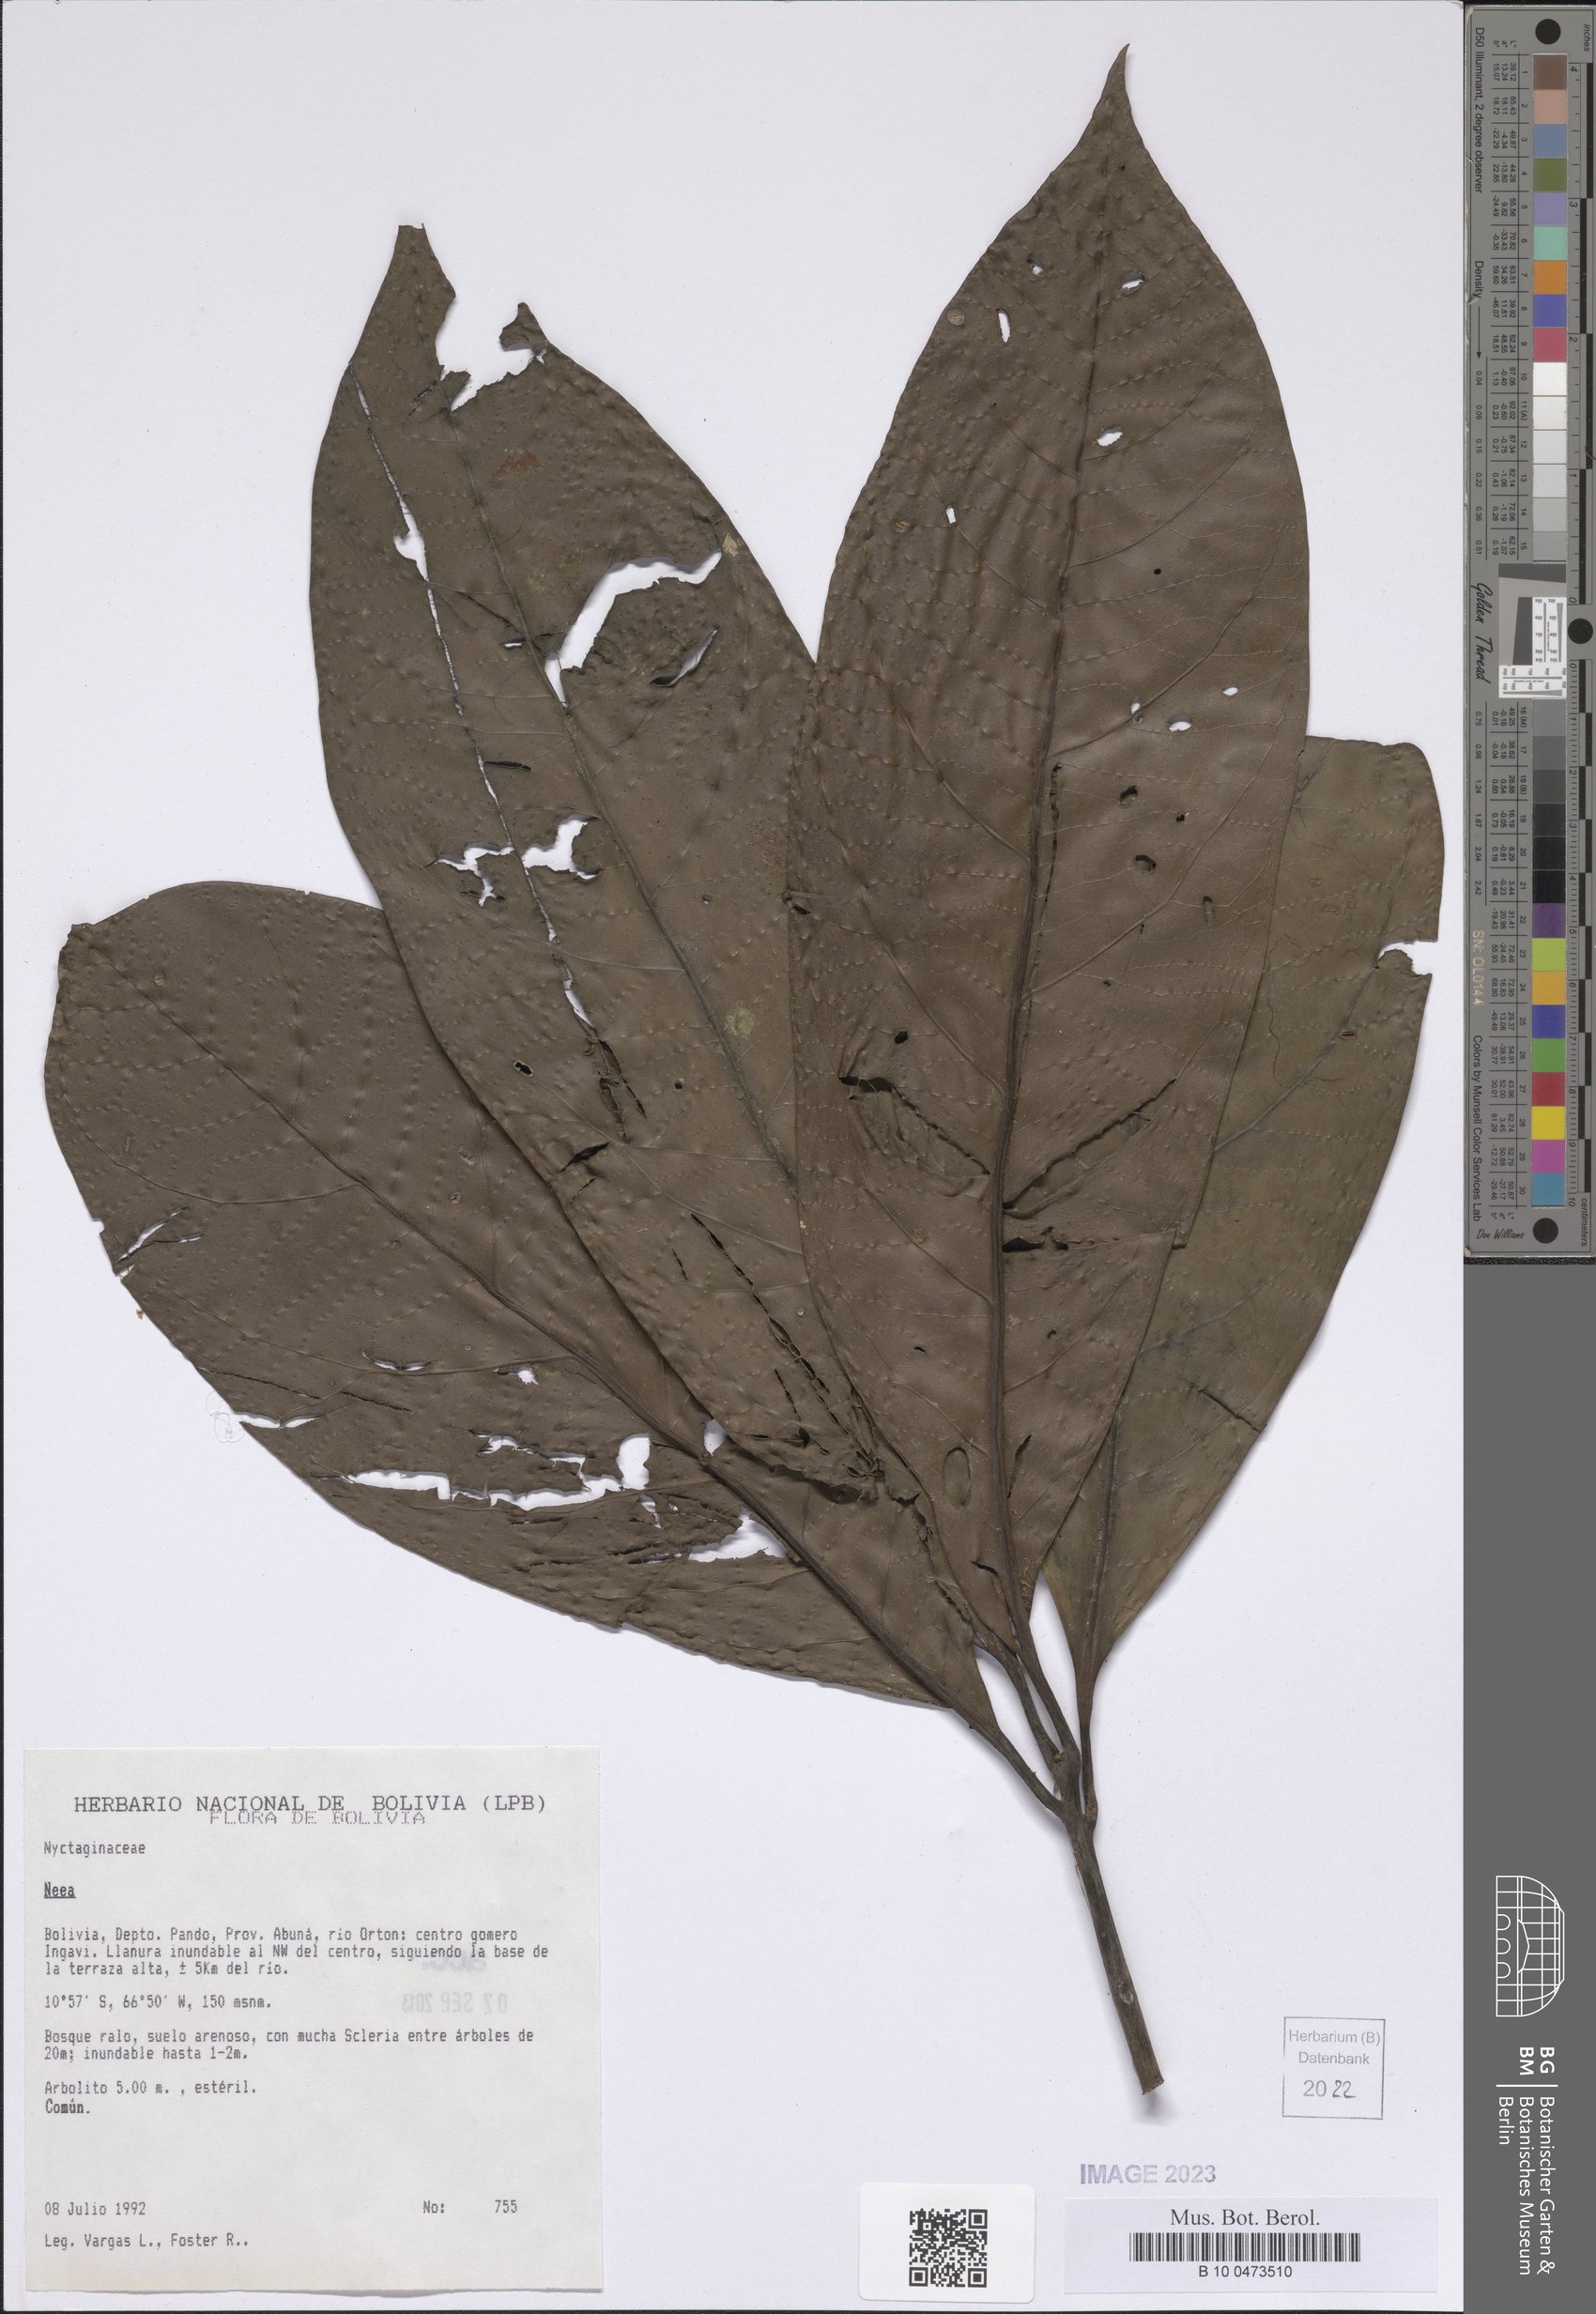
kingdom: Plantae
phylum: Tracheophyta
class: Magnoliopsida
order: Caryophyllales
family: Nyctaginaceae
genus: Neea
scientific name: Neea
